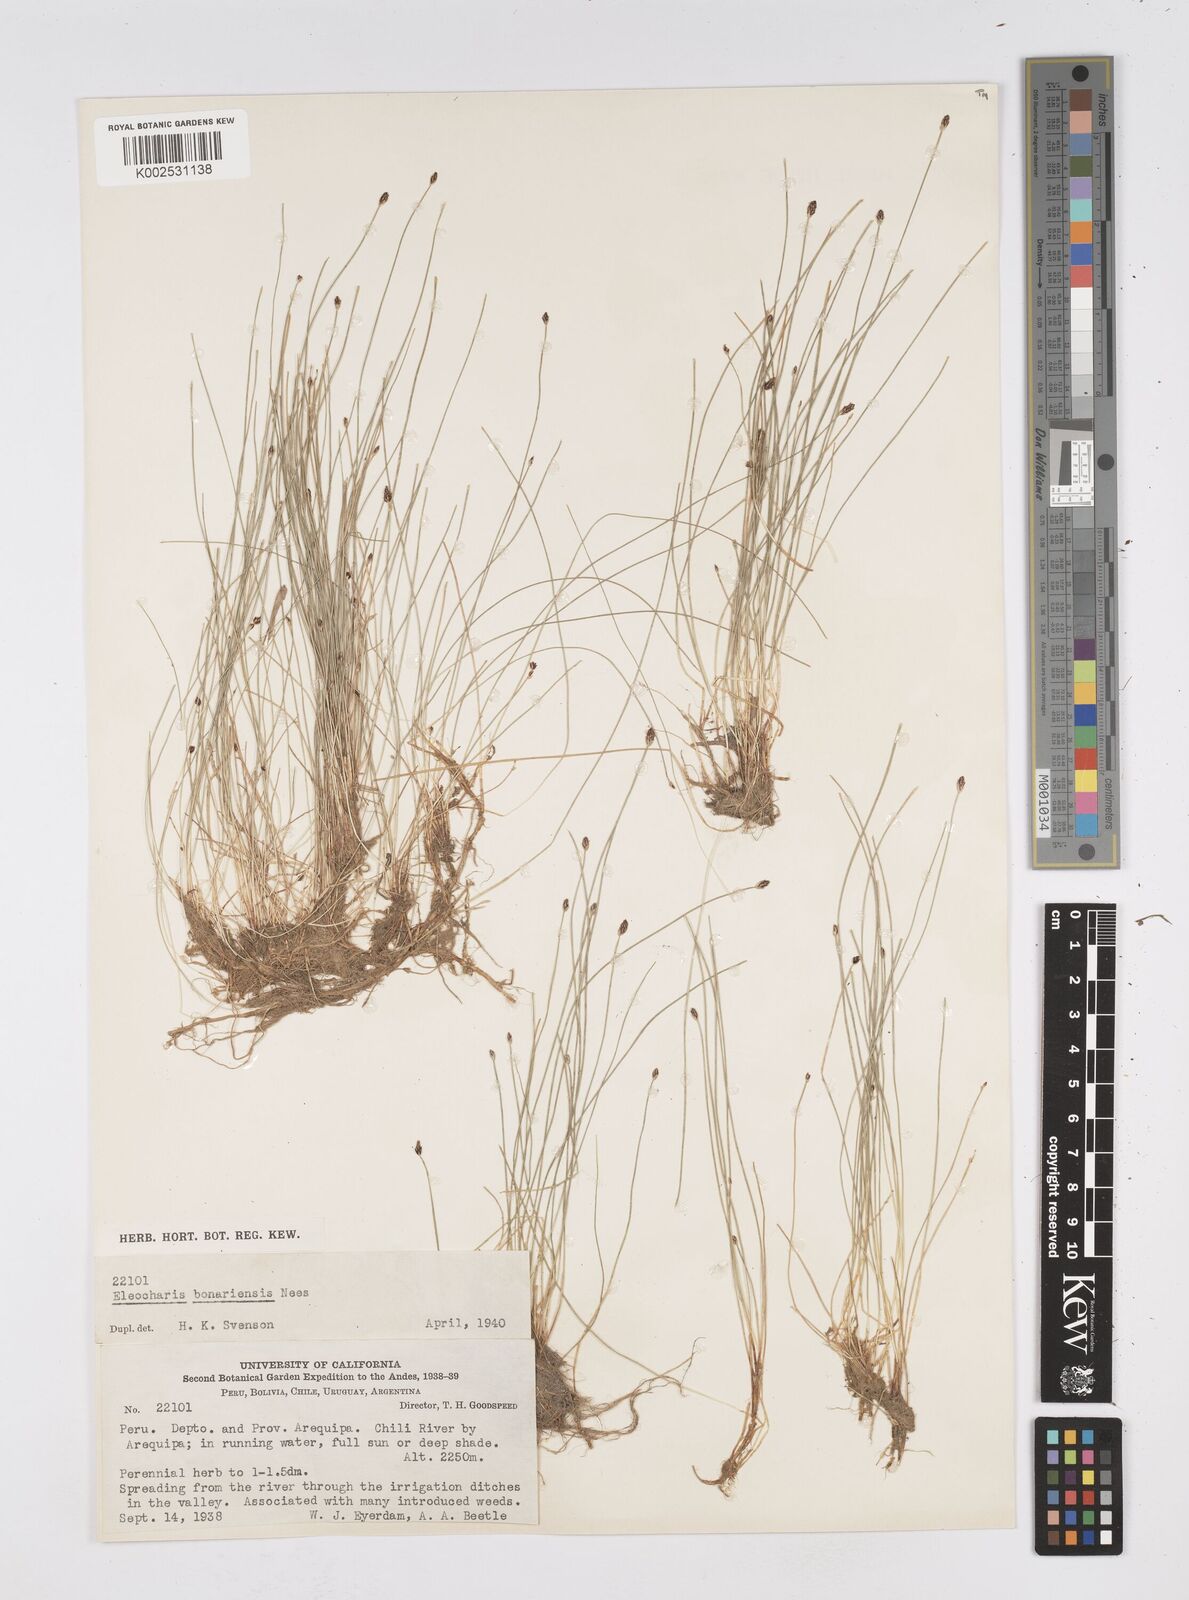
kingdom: Plantae
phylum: Tracheophyta
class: Liliopsida
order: Poales
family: Cyperaceae
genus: Eleocharis
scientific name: Eleocharis bonariensis
